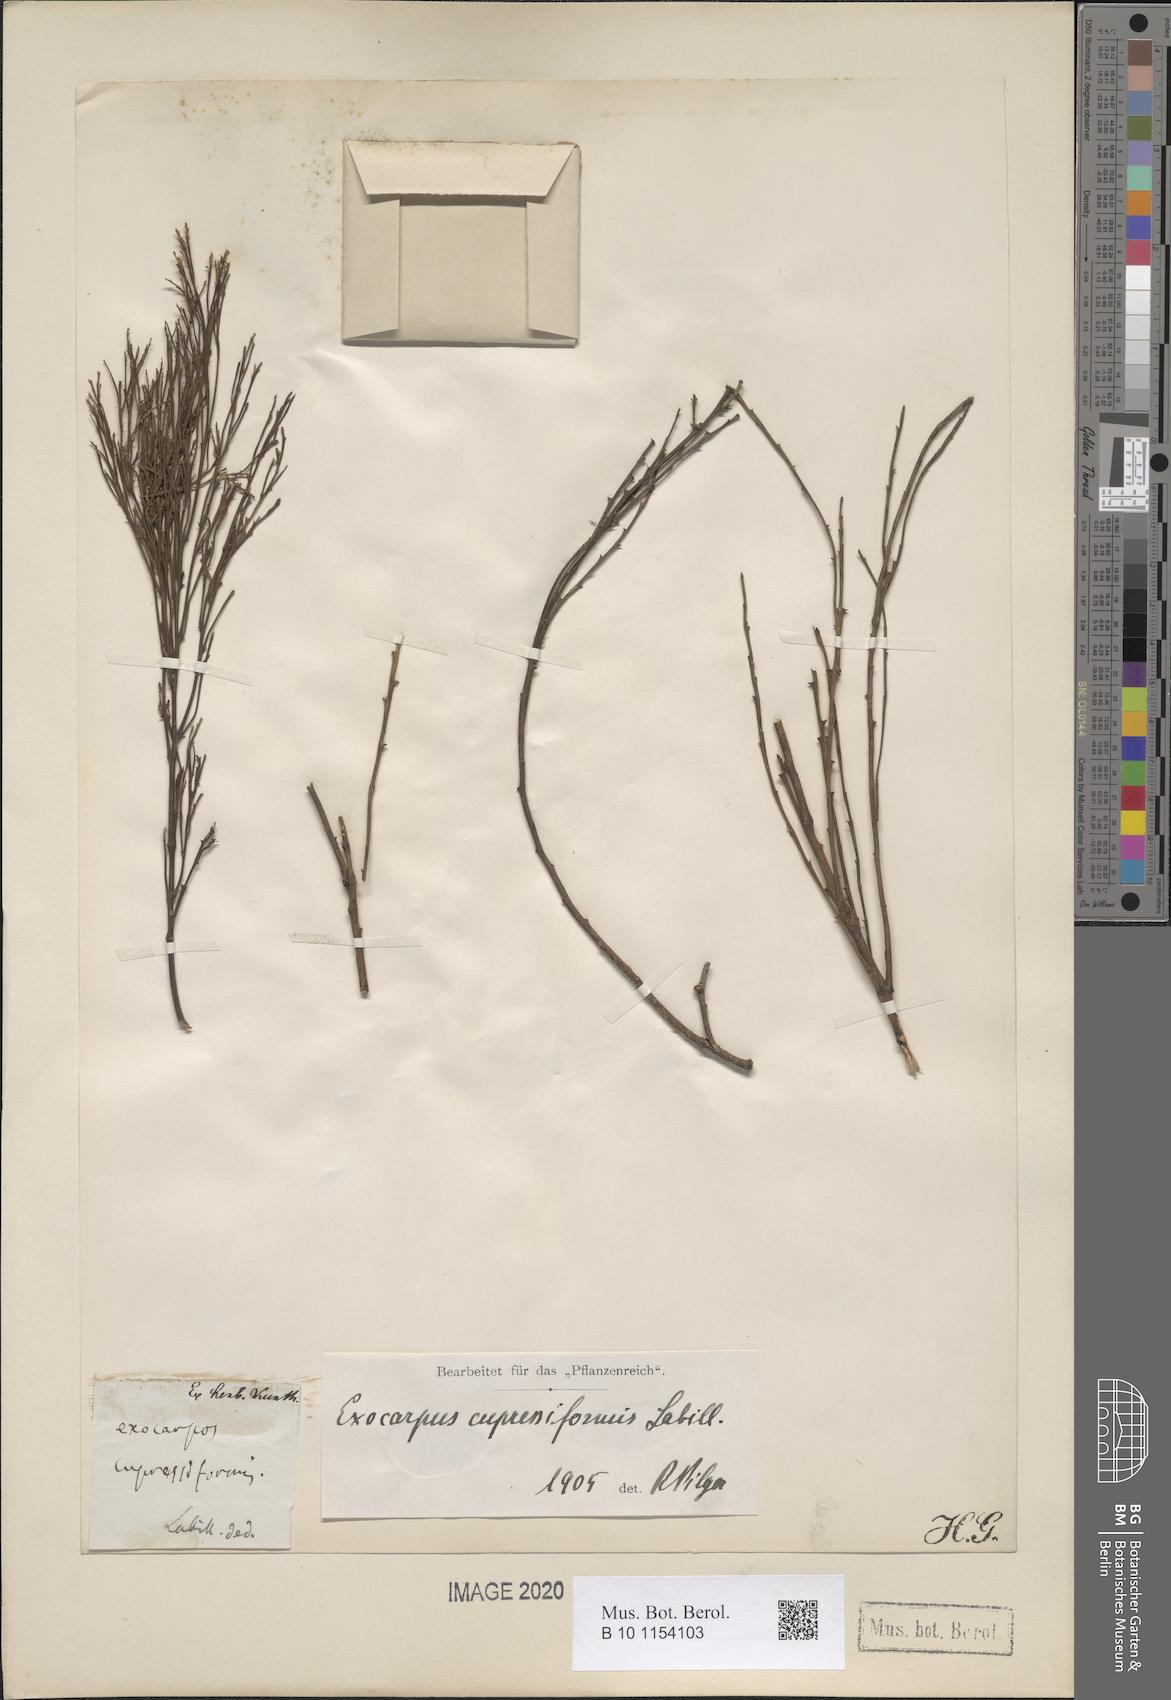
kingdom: Plantae
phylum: Tracheophyta
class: Magnoliopsida
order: Santalales
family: Santalaceae
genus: Exocarpos
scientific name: Exocarpos cupressiformis
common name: Cherry ballart
